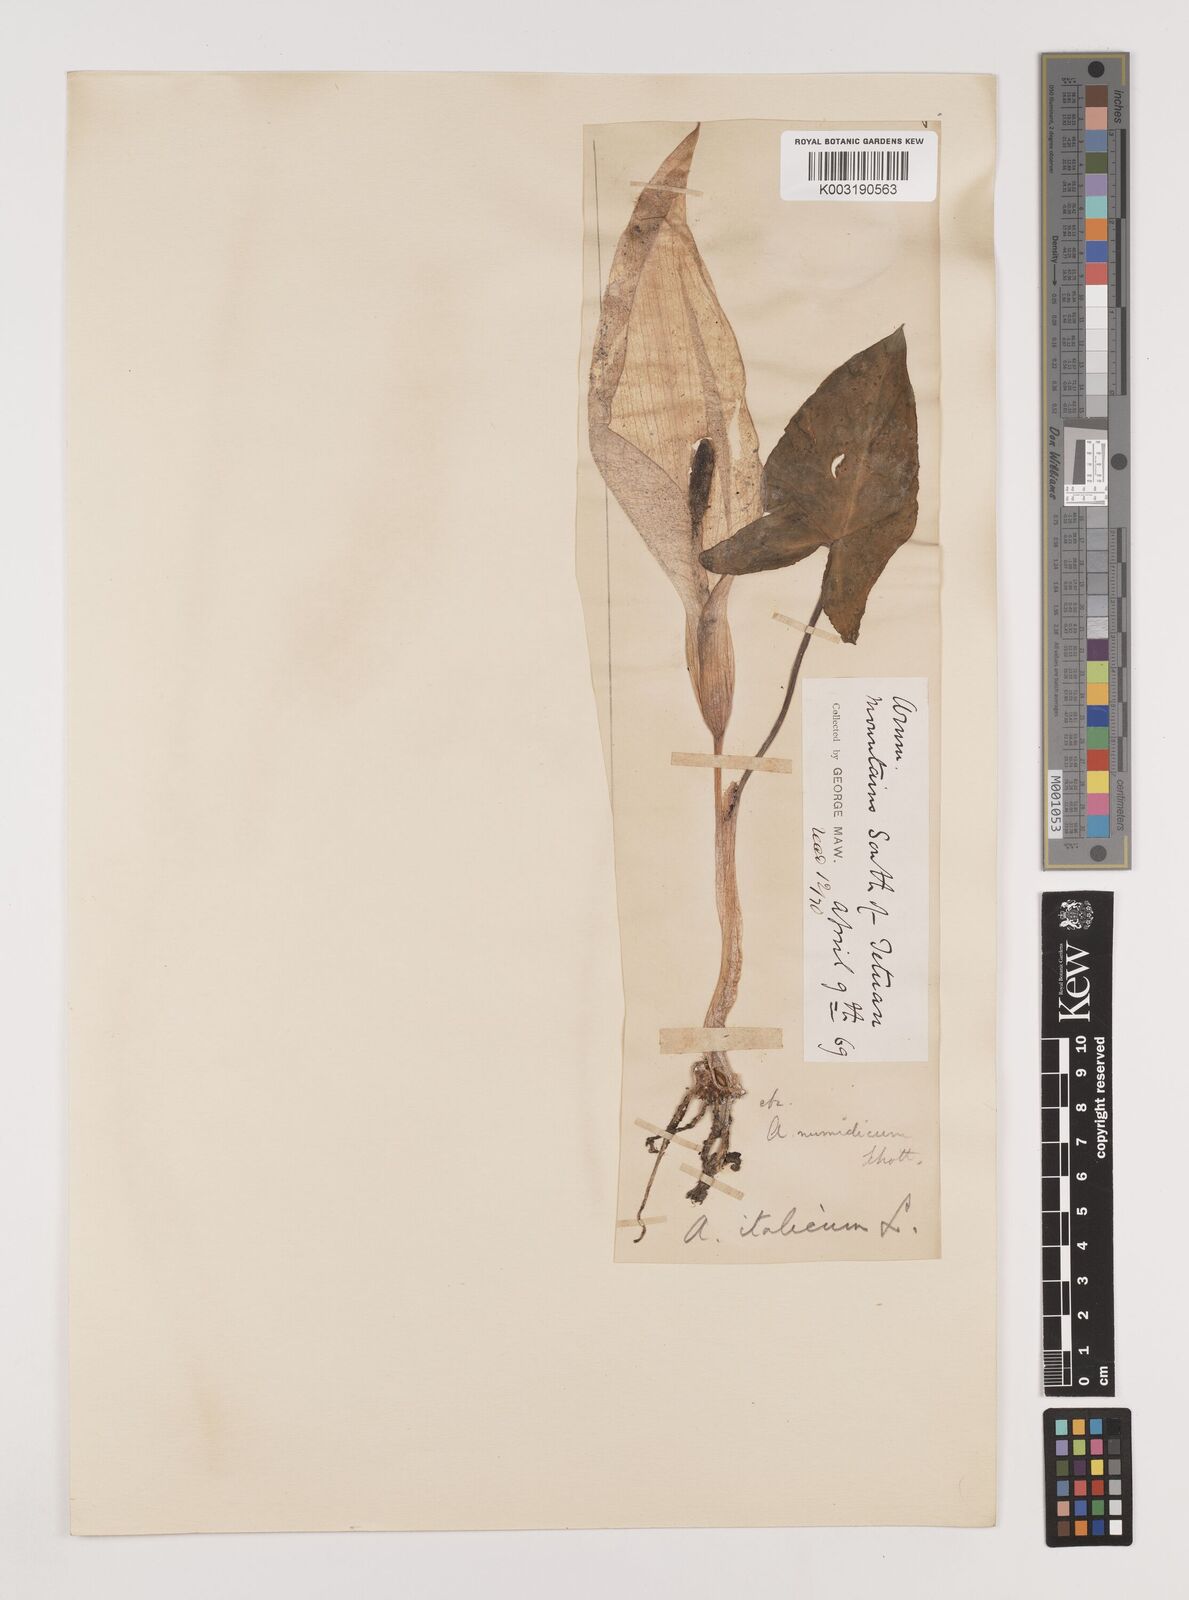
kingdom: Plantae
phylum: Tracheophyta
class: Liliopsida
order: Alismatales
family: Araceae
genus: Arum
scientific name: Arum italicum
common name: Italian lords-and-ladies
